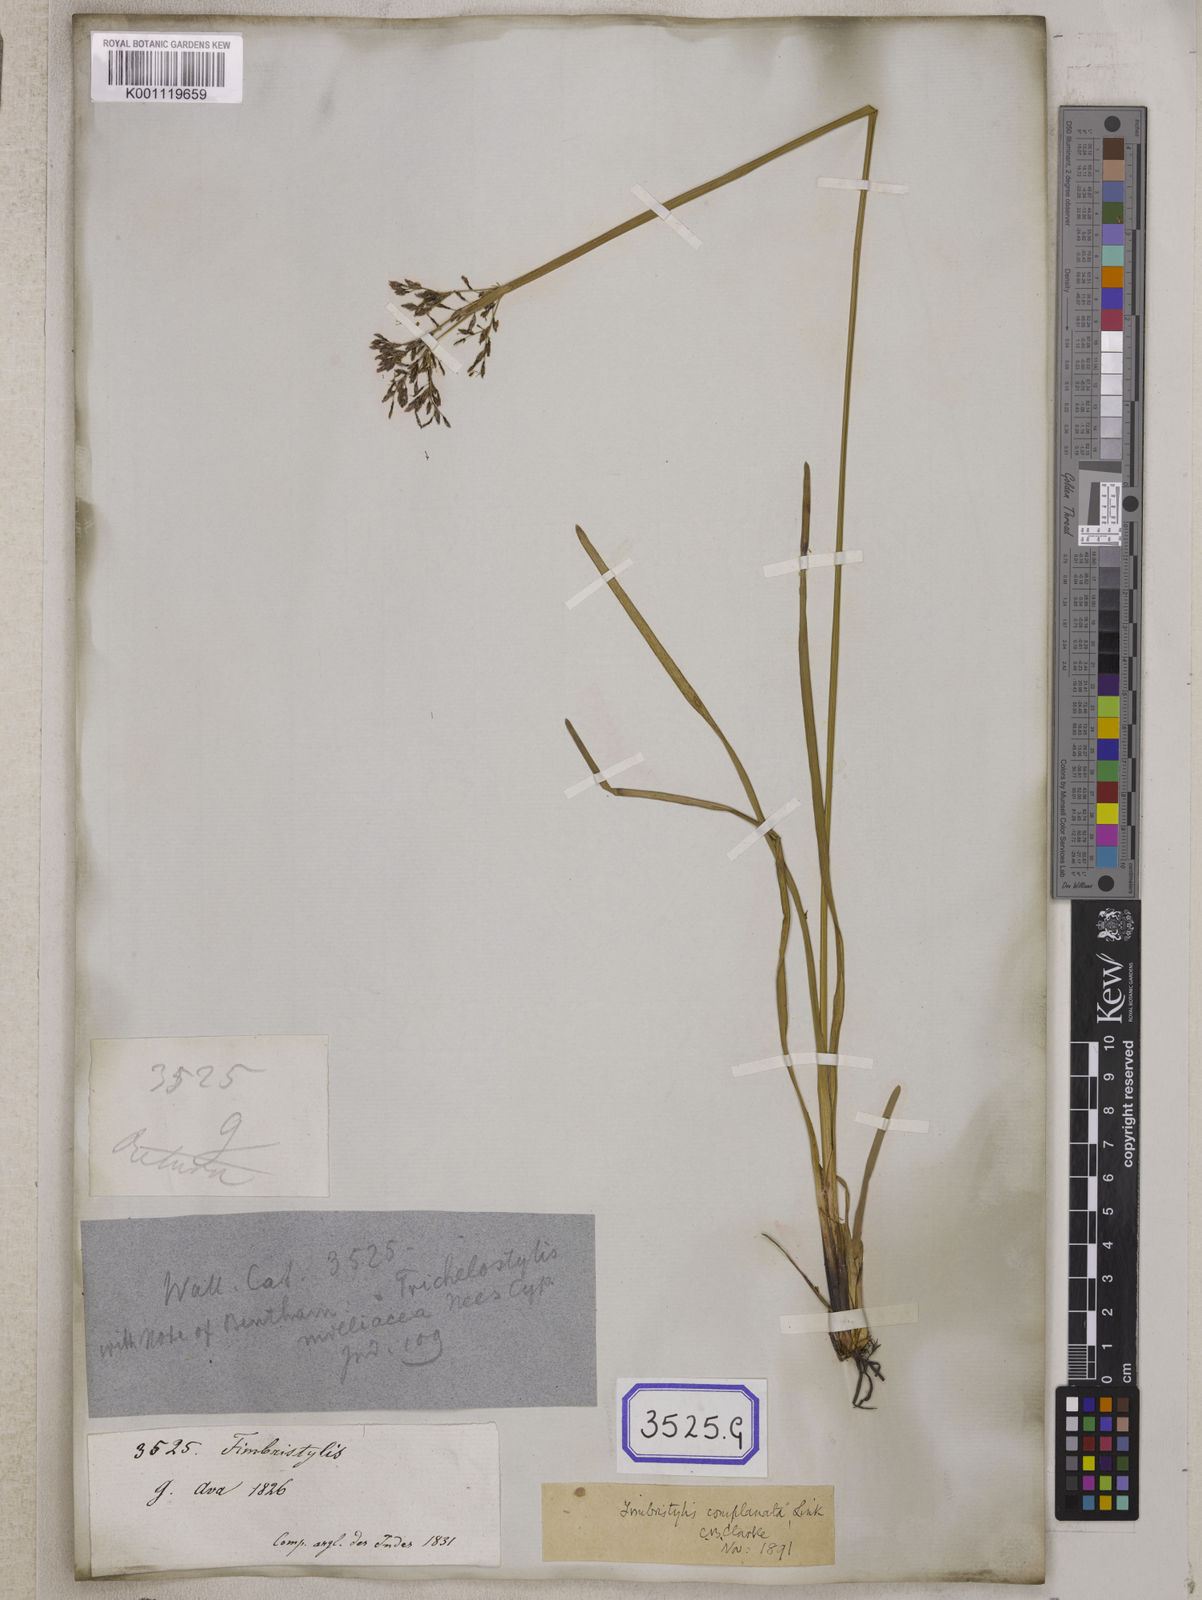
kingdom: Plantae
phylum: Tracheophyta
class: Liliopsida
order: Poales
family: Cyperaceae
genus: Fimbristylis
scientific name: Fimbristylis
